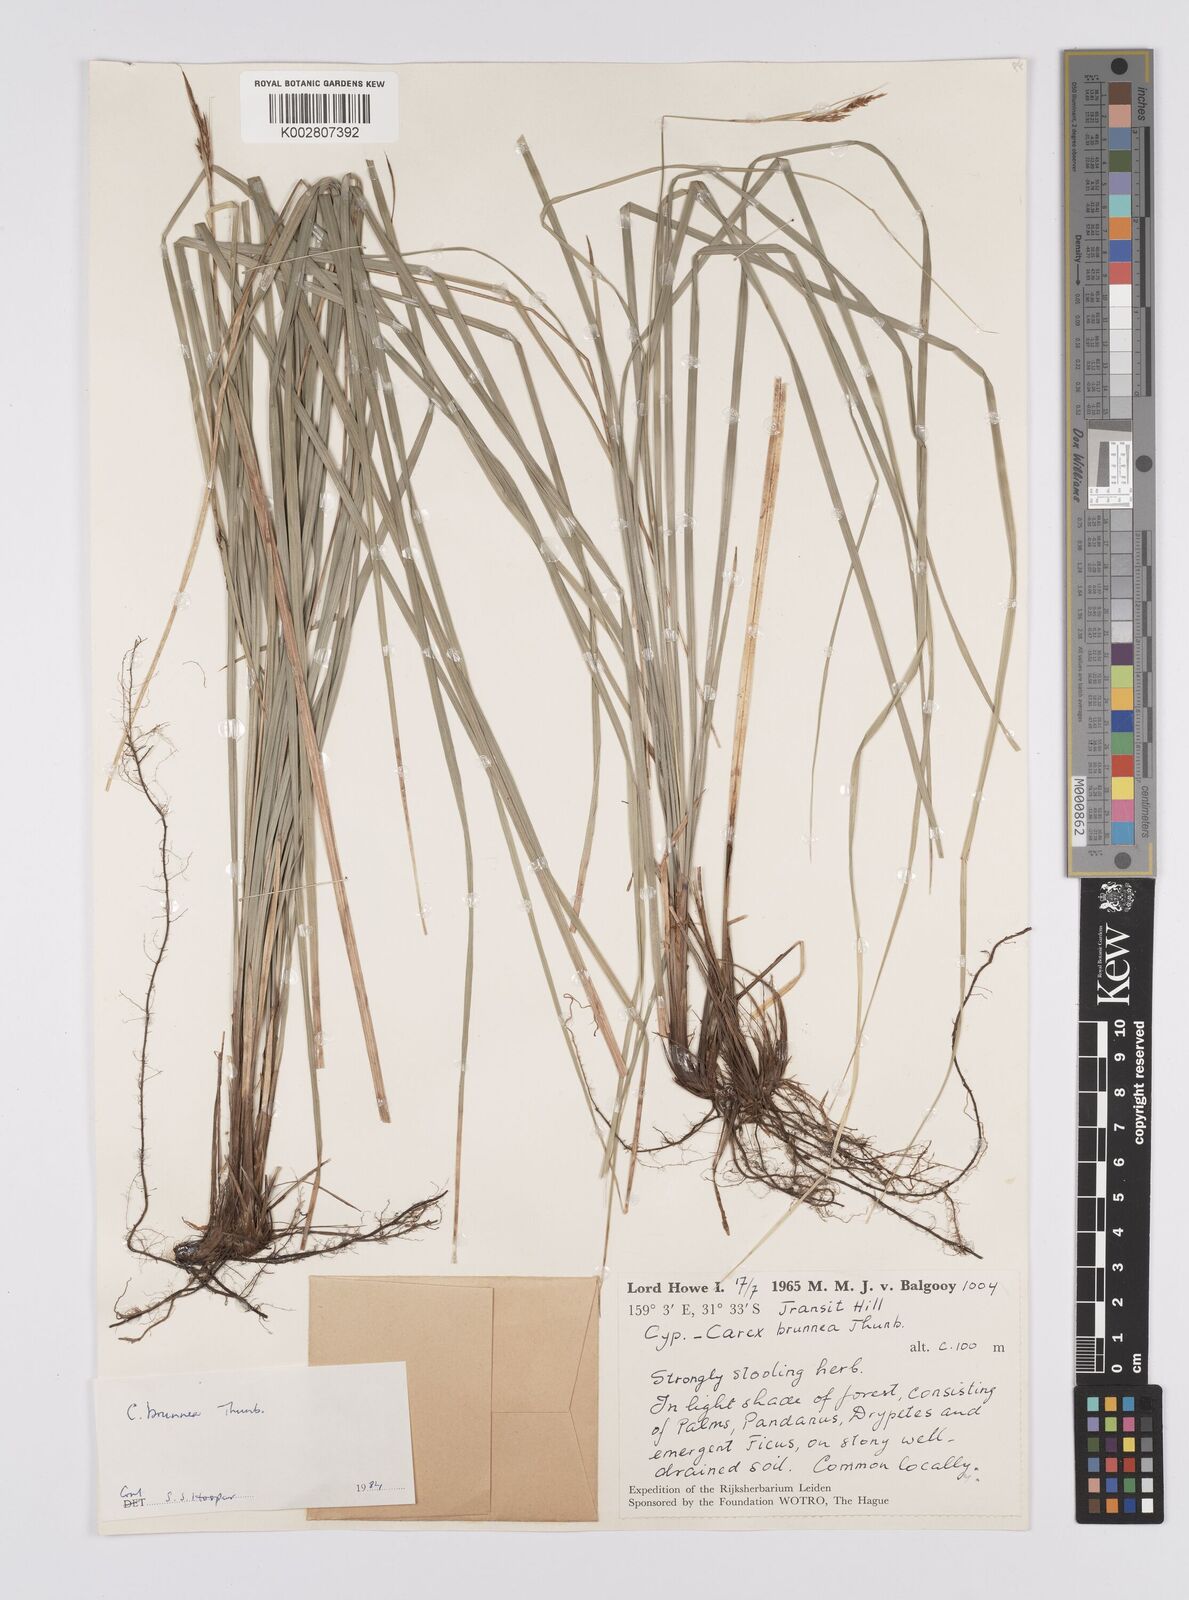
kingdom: Plantae
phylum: Tracheophyta
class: Liliopsida
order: Poales
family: Cyperaceae
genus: Carex
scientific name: Carex hattoriana
